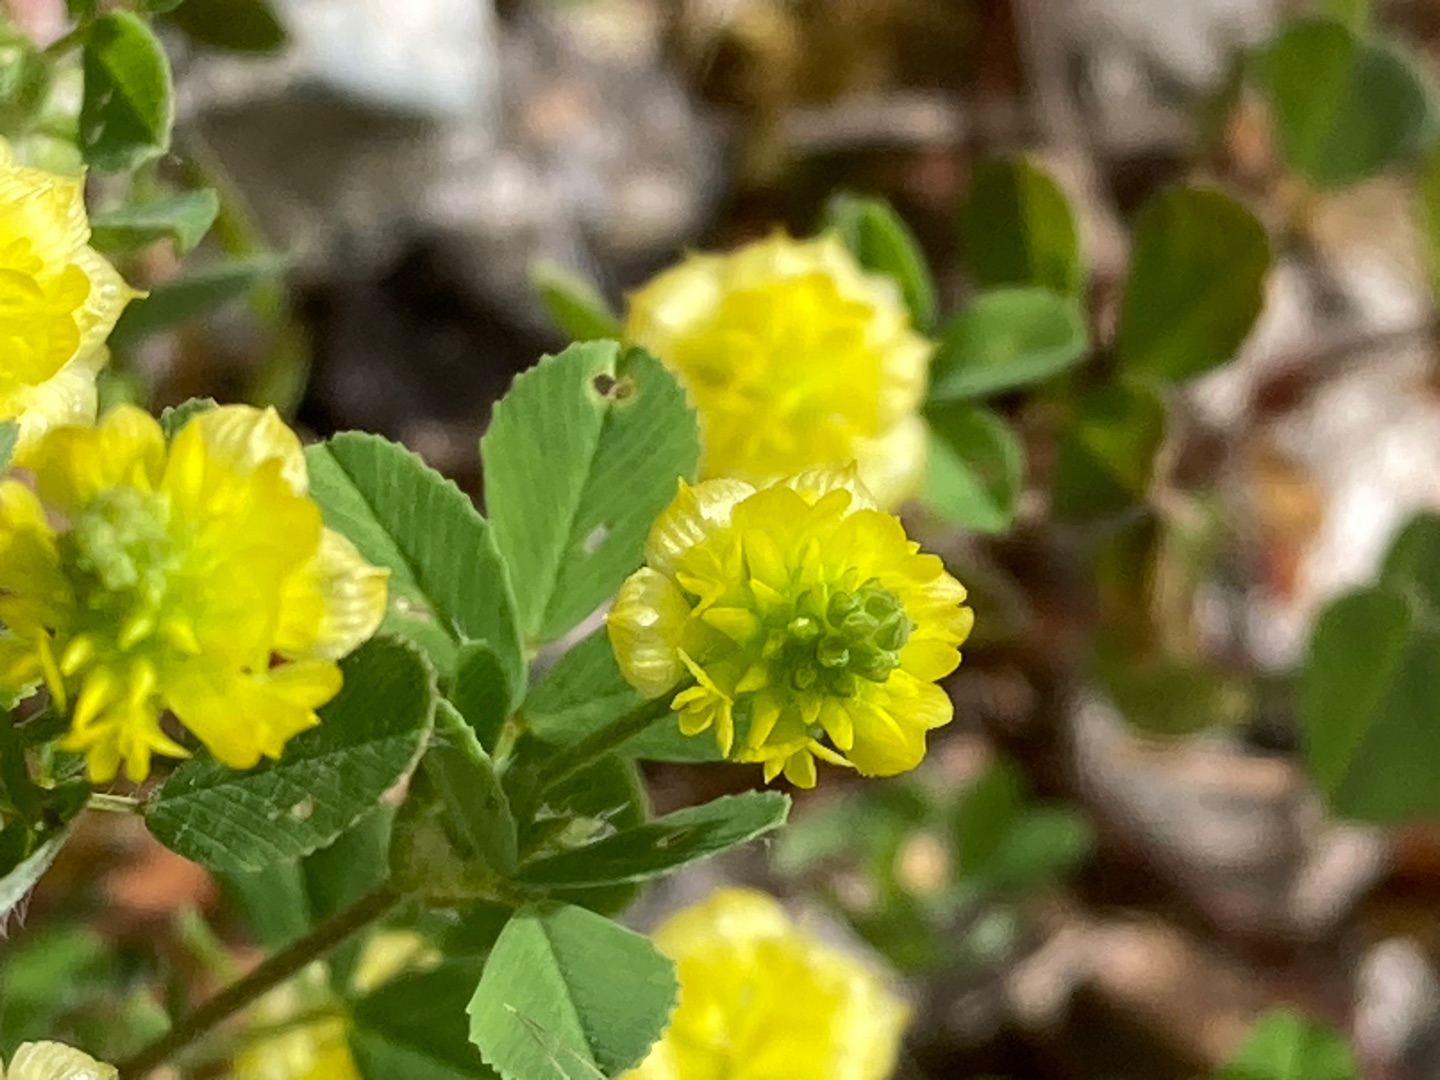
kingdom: Plantae
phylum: Tracheophyta
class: Magnoliopsida
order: Fabales
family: Fabaceae
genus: Trifolium
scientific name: Trifolium campestre
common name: Gul kløver
